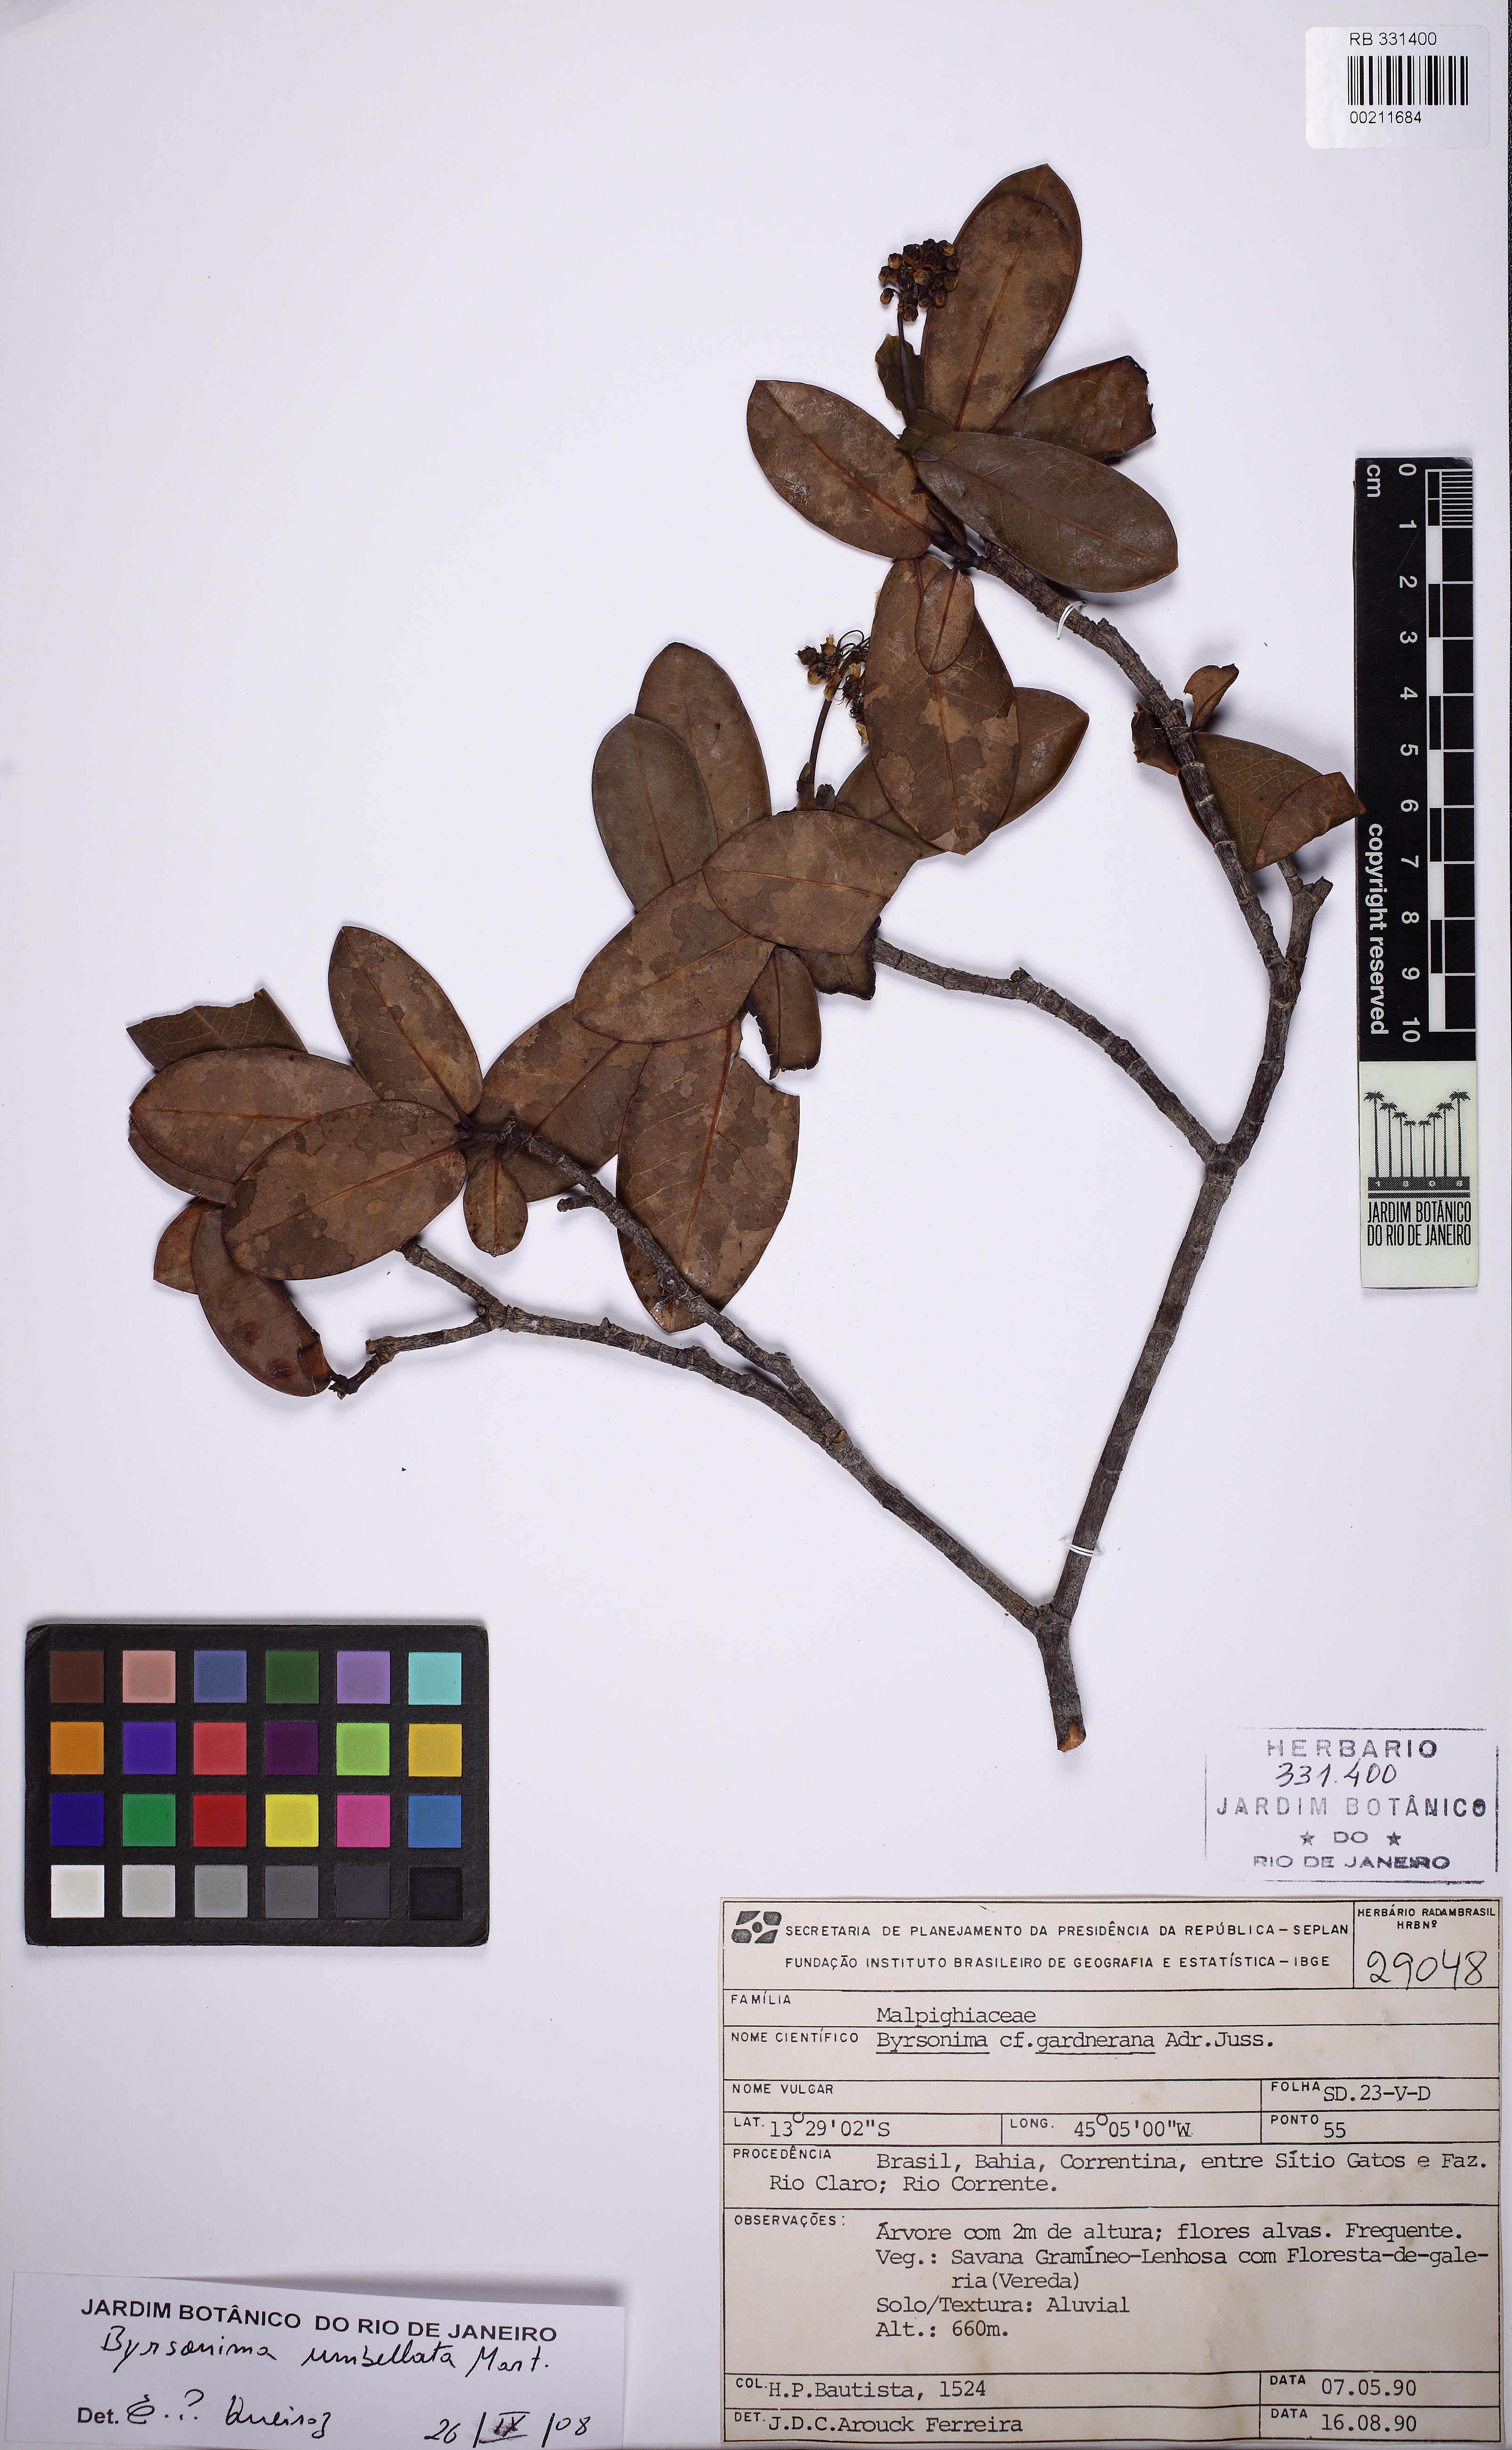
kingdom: Plantae
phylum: Tracheophyta
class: Magnoliopsida
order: Malpighiales
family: Malpighiaceae
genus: Byrsonima
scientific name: Byrsonima umbellata
